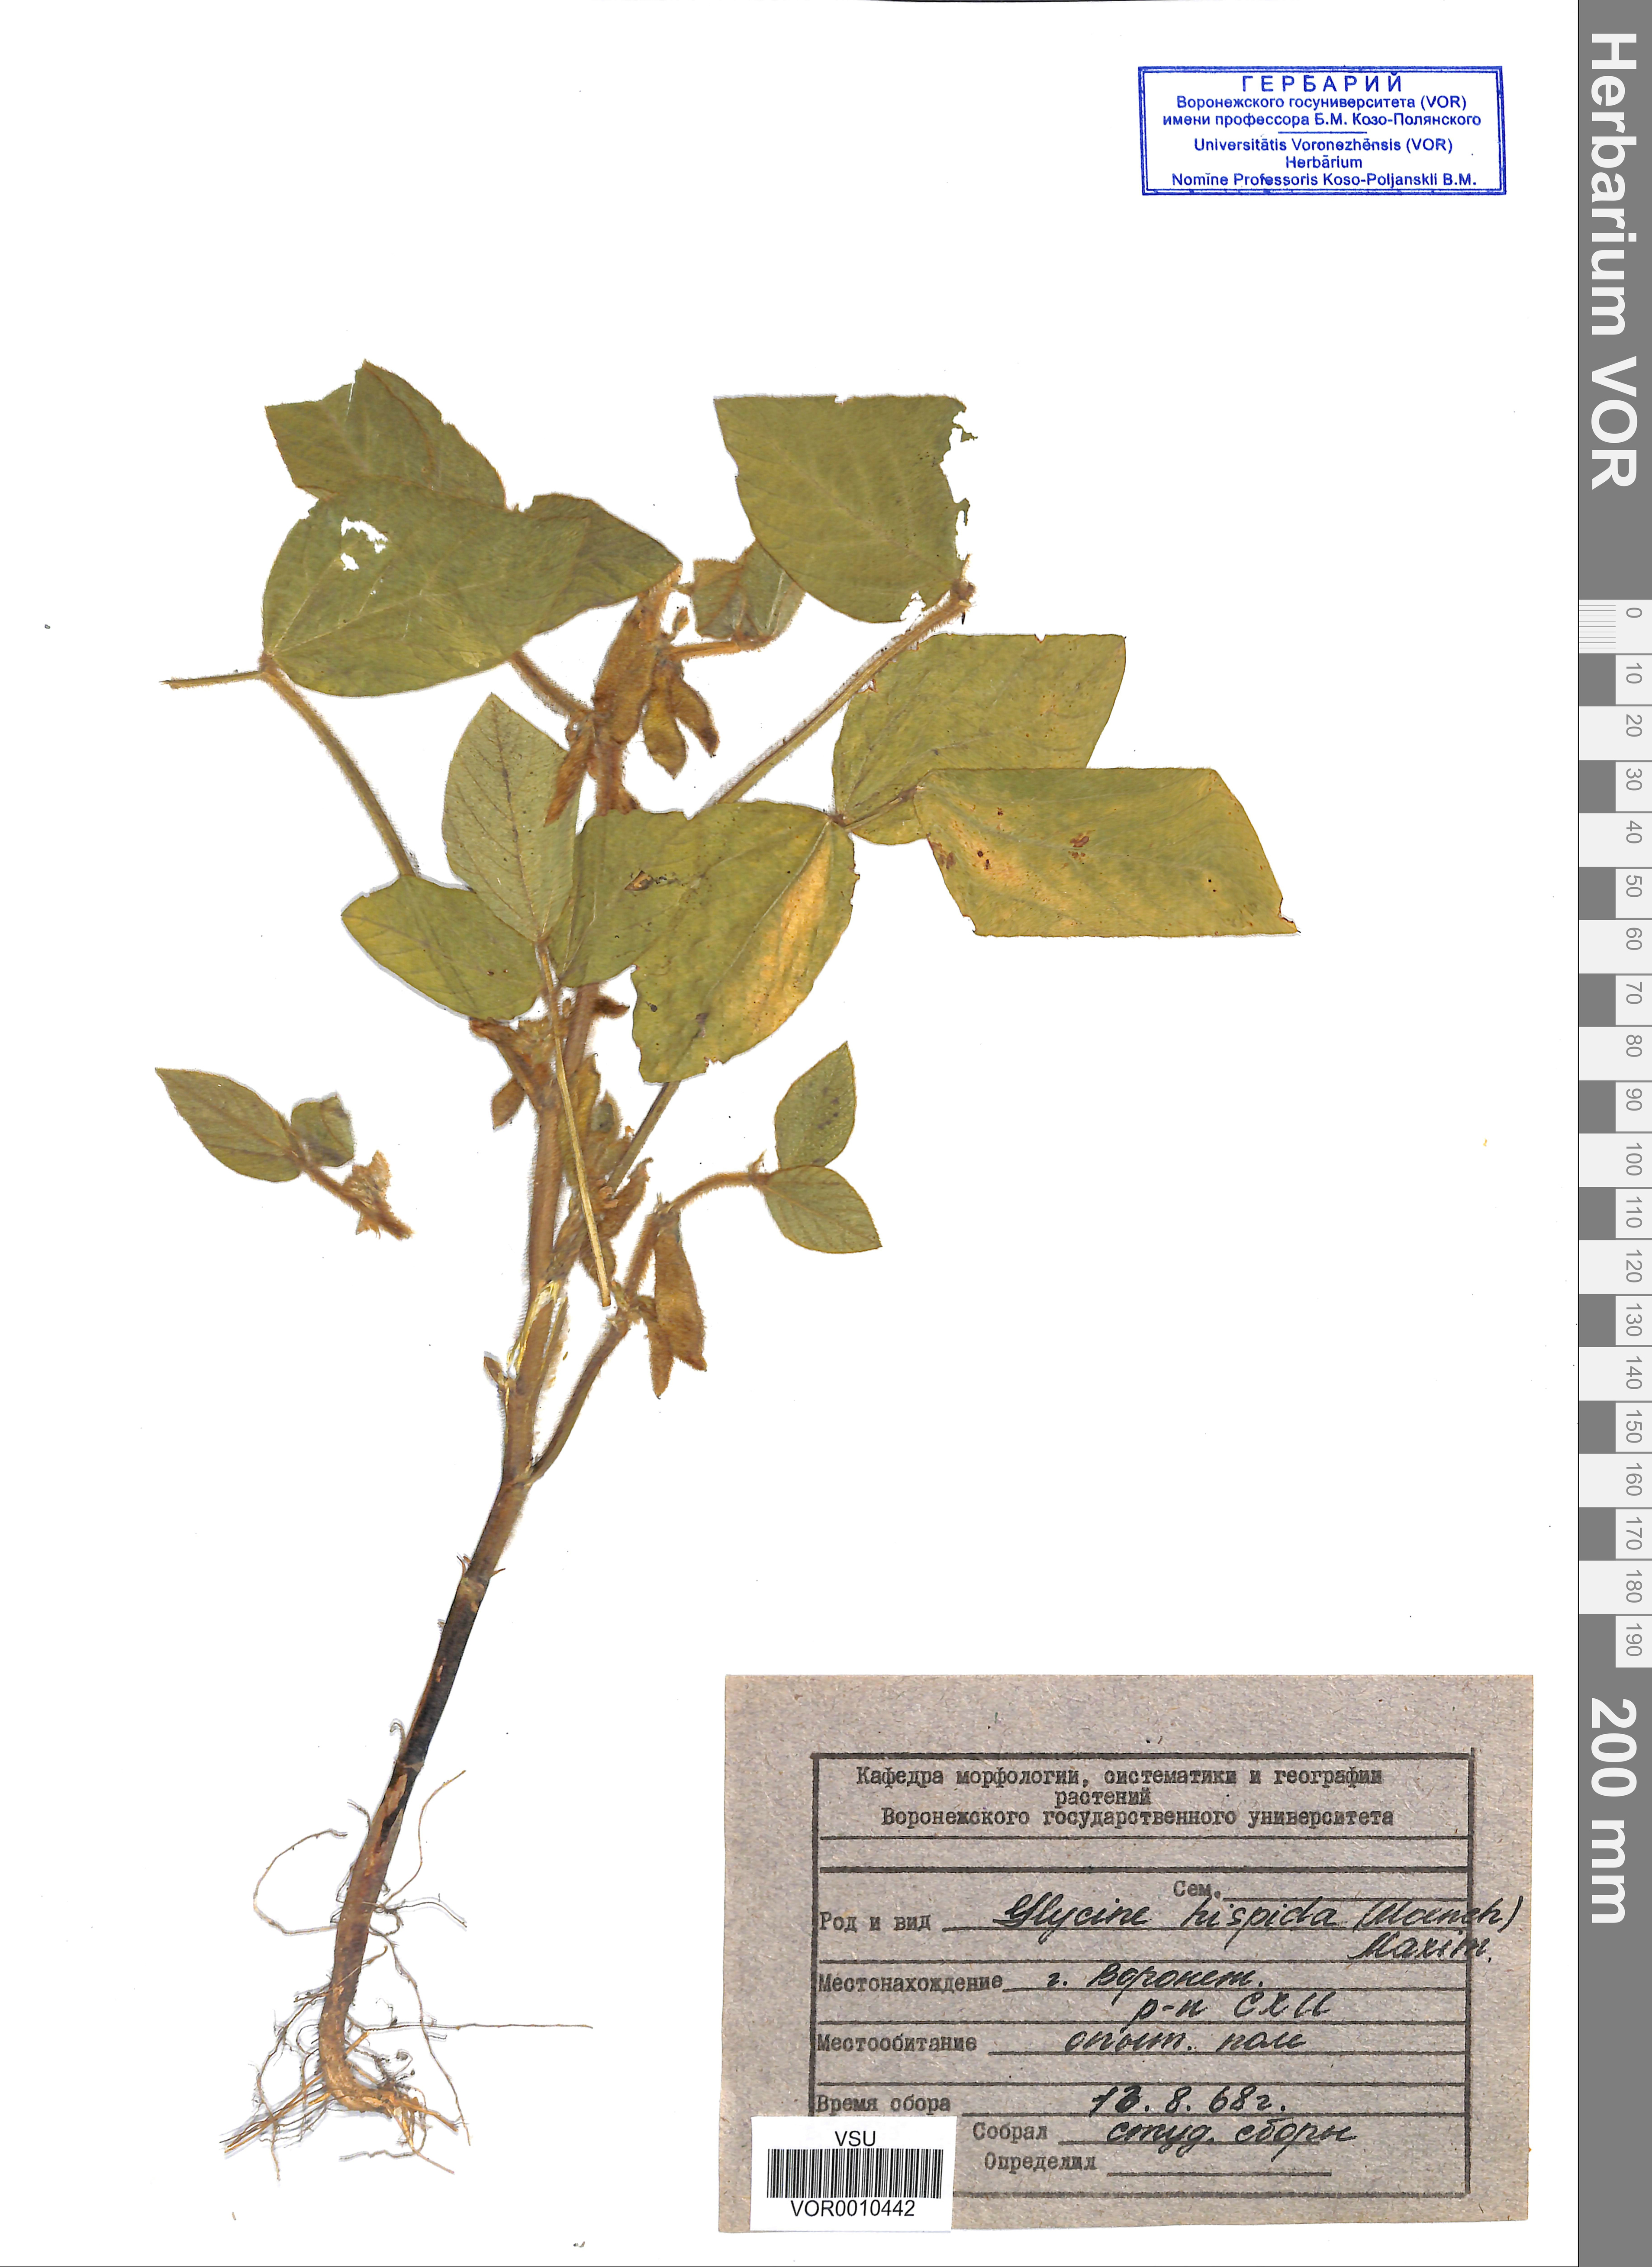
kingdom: Plantae
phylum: Tracheophyta
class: Magnoliopsida
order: Fabales
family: Fabaceae
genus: Glycine
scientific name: Glycine max
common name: Soya-bean
